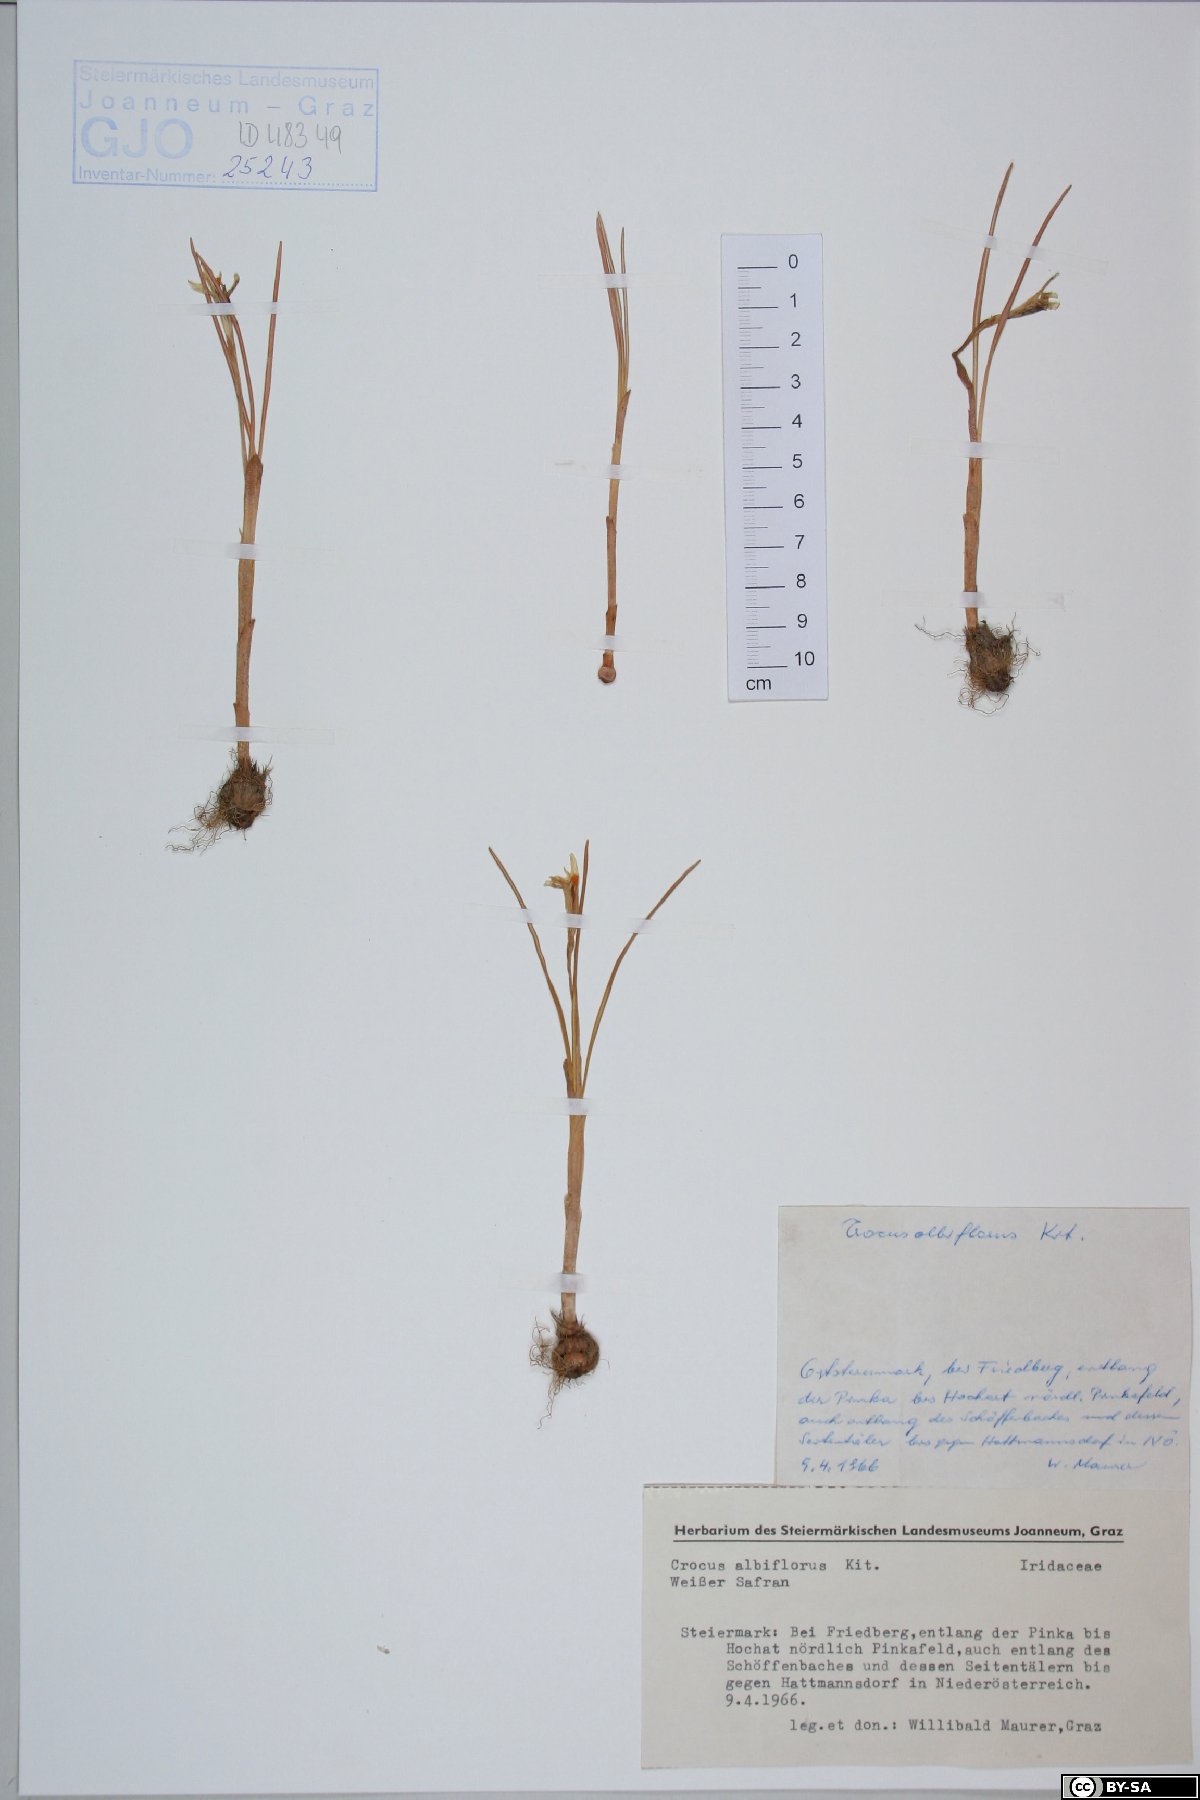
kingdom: Plantae
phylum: Tracheophyta
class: Liliopsida
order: Asparagales
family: Iridaceae
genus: Crocus
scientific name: Crocus vernus
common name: Spring crocus
